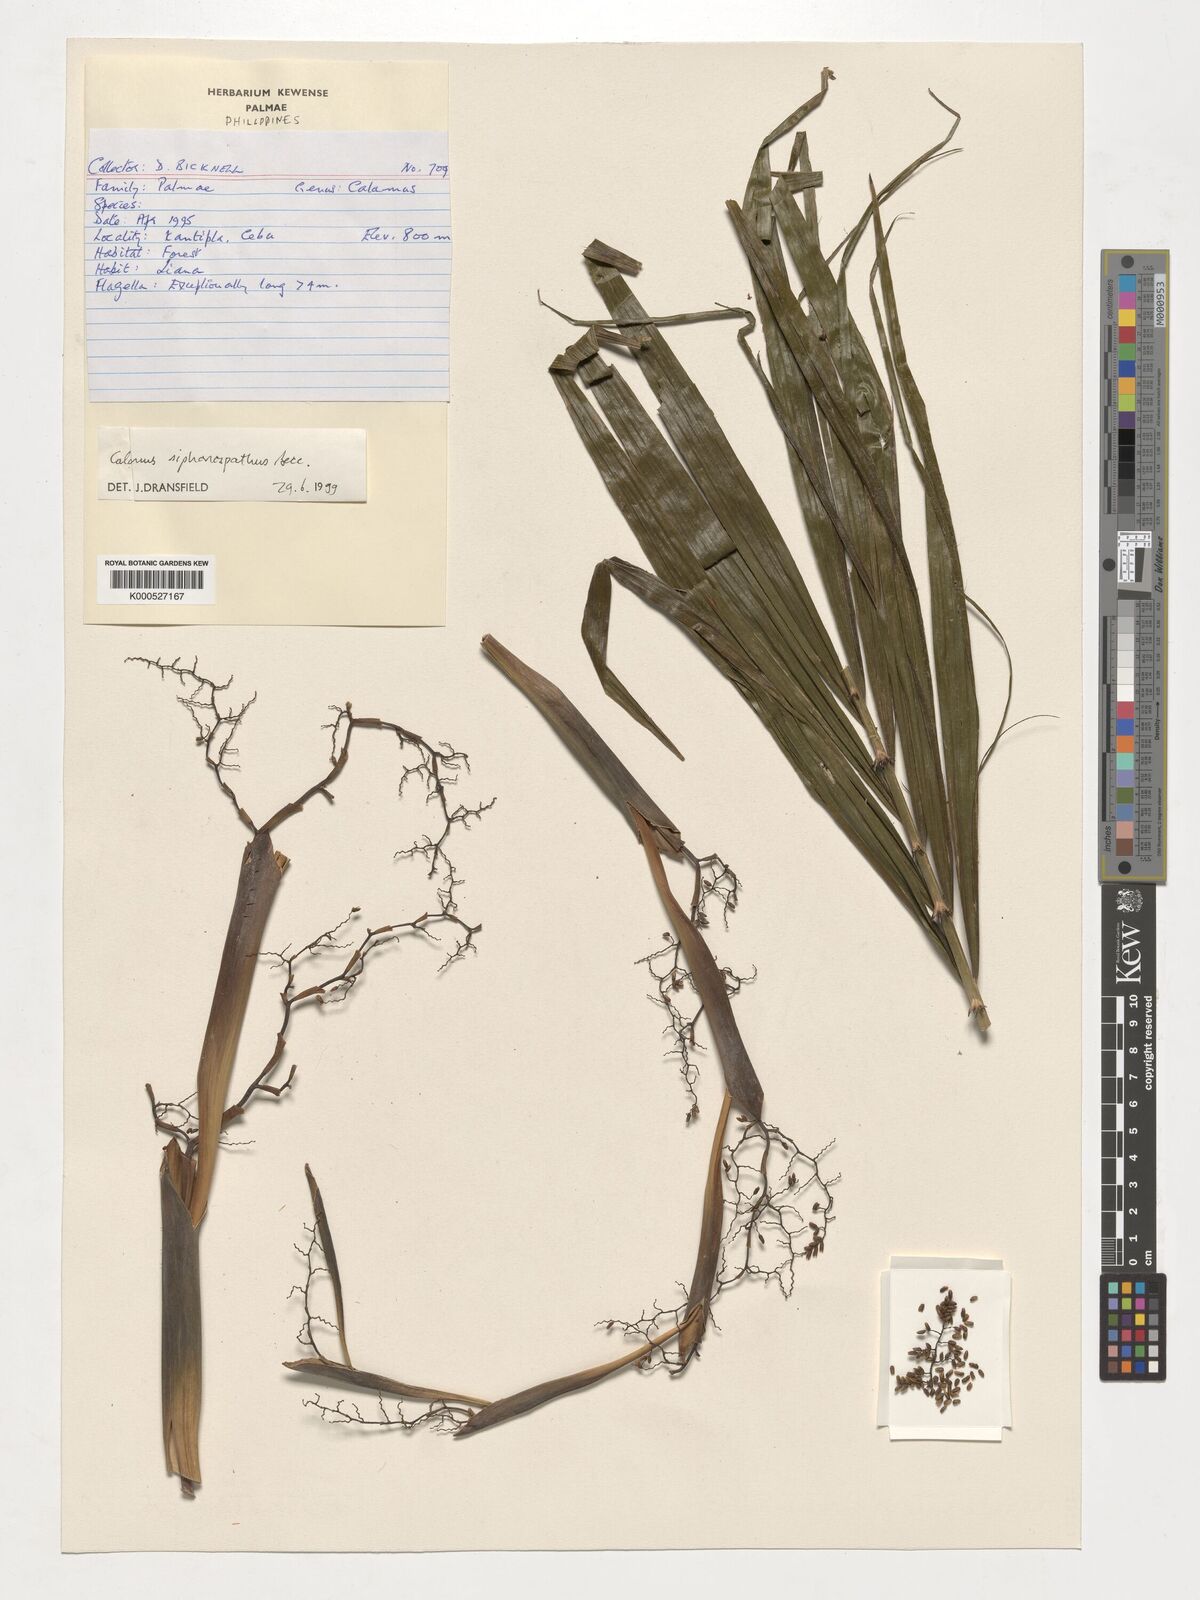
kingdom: Plantae
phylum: Tracheophyta
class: Liliopsida
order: Arecales
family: Arecaceae
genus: Calamus
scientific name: Calamus siphonospathus
